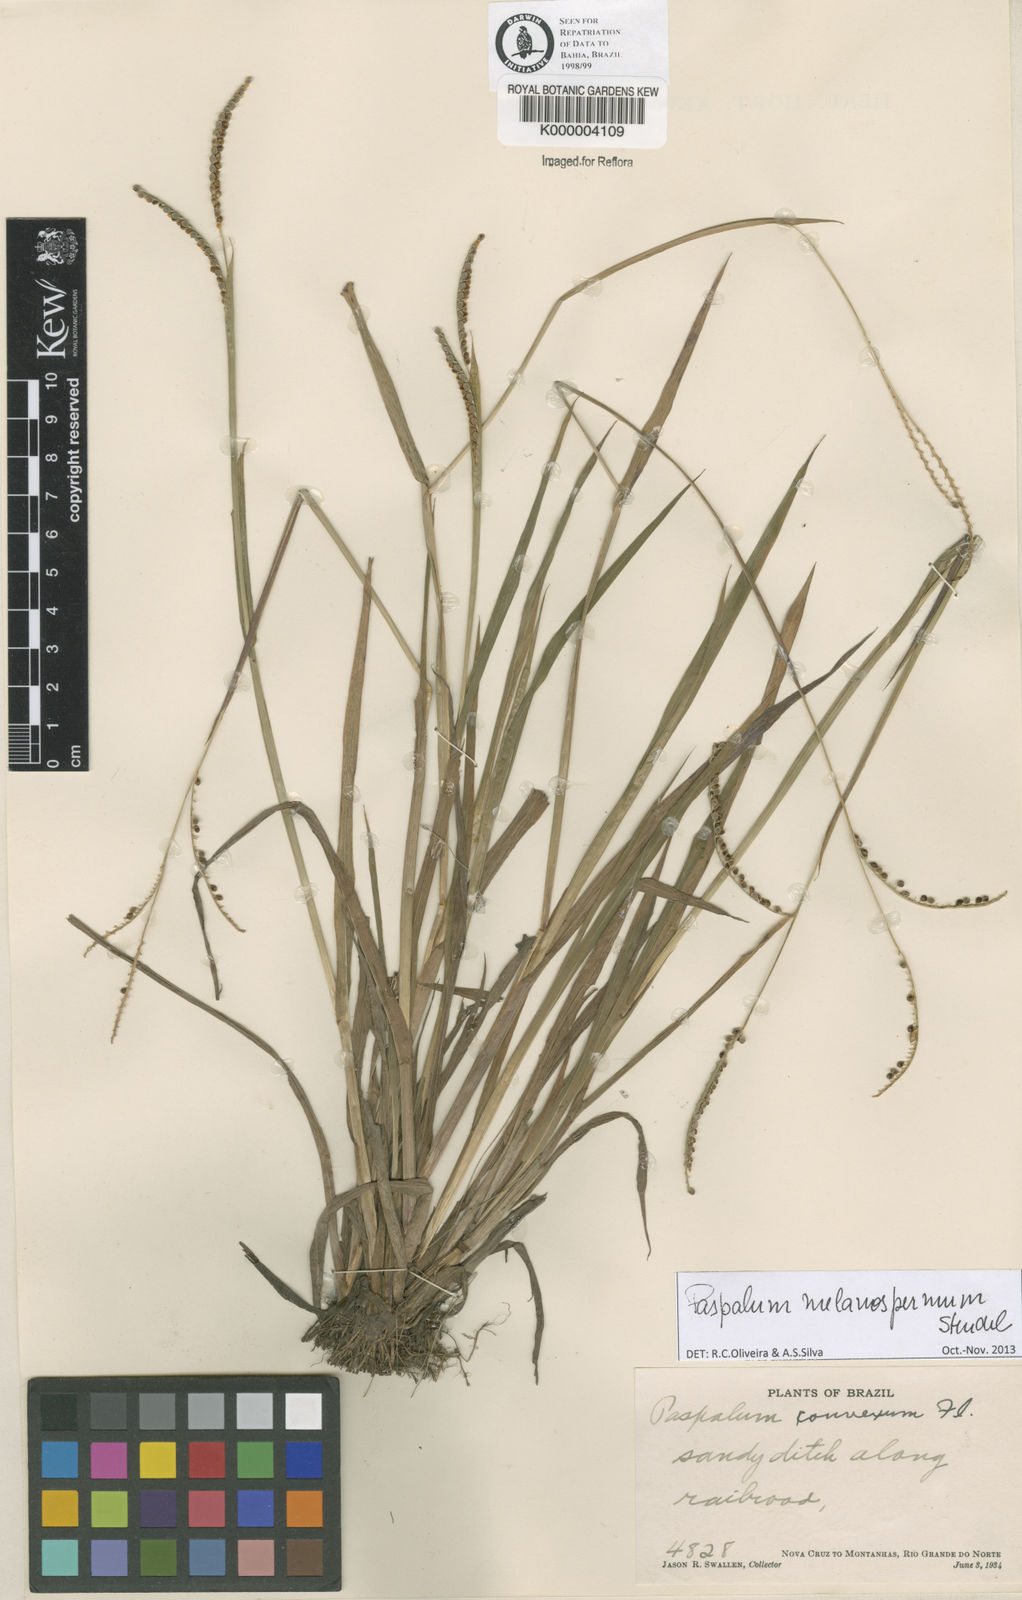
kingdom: Plantae
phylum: Tracheophyta
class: Liliopsida
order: Poales
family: Poaceae
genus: Paspalum
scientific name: Paspalum
